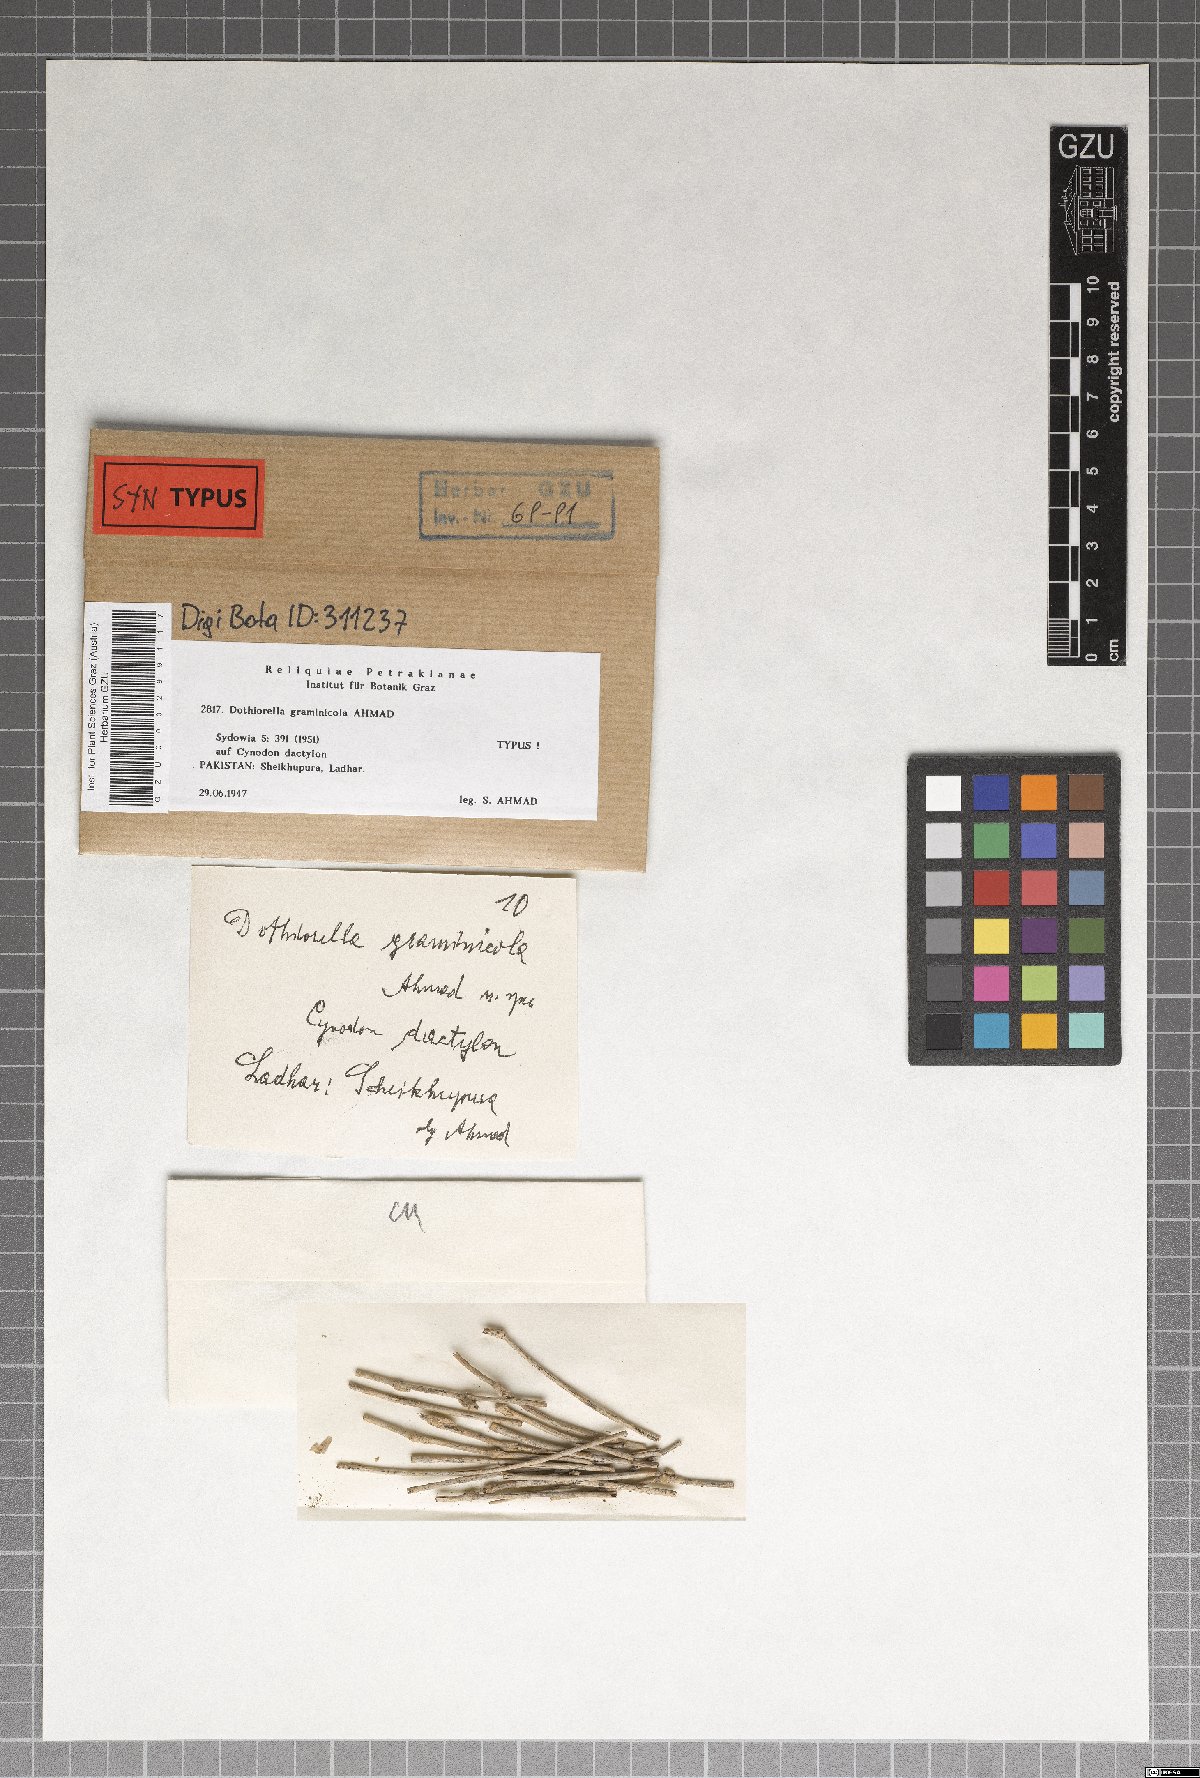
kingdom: Fungi
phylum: Ascomycota
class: Dothideomycetes
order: Botryosphaeriales
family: Botryosphaeriaceae
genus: Dothiorella
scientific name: Dothiorella graminicola
